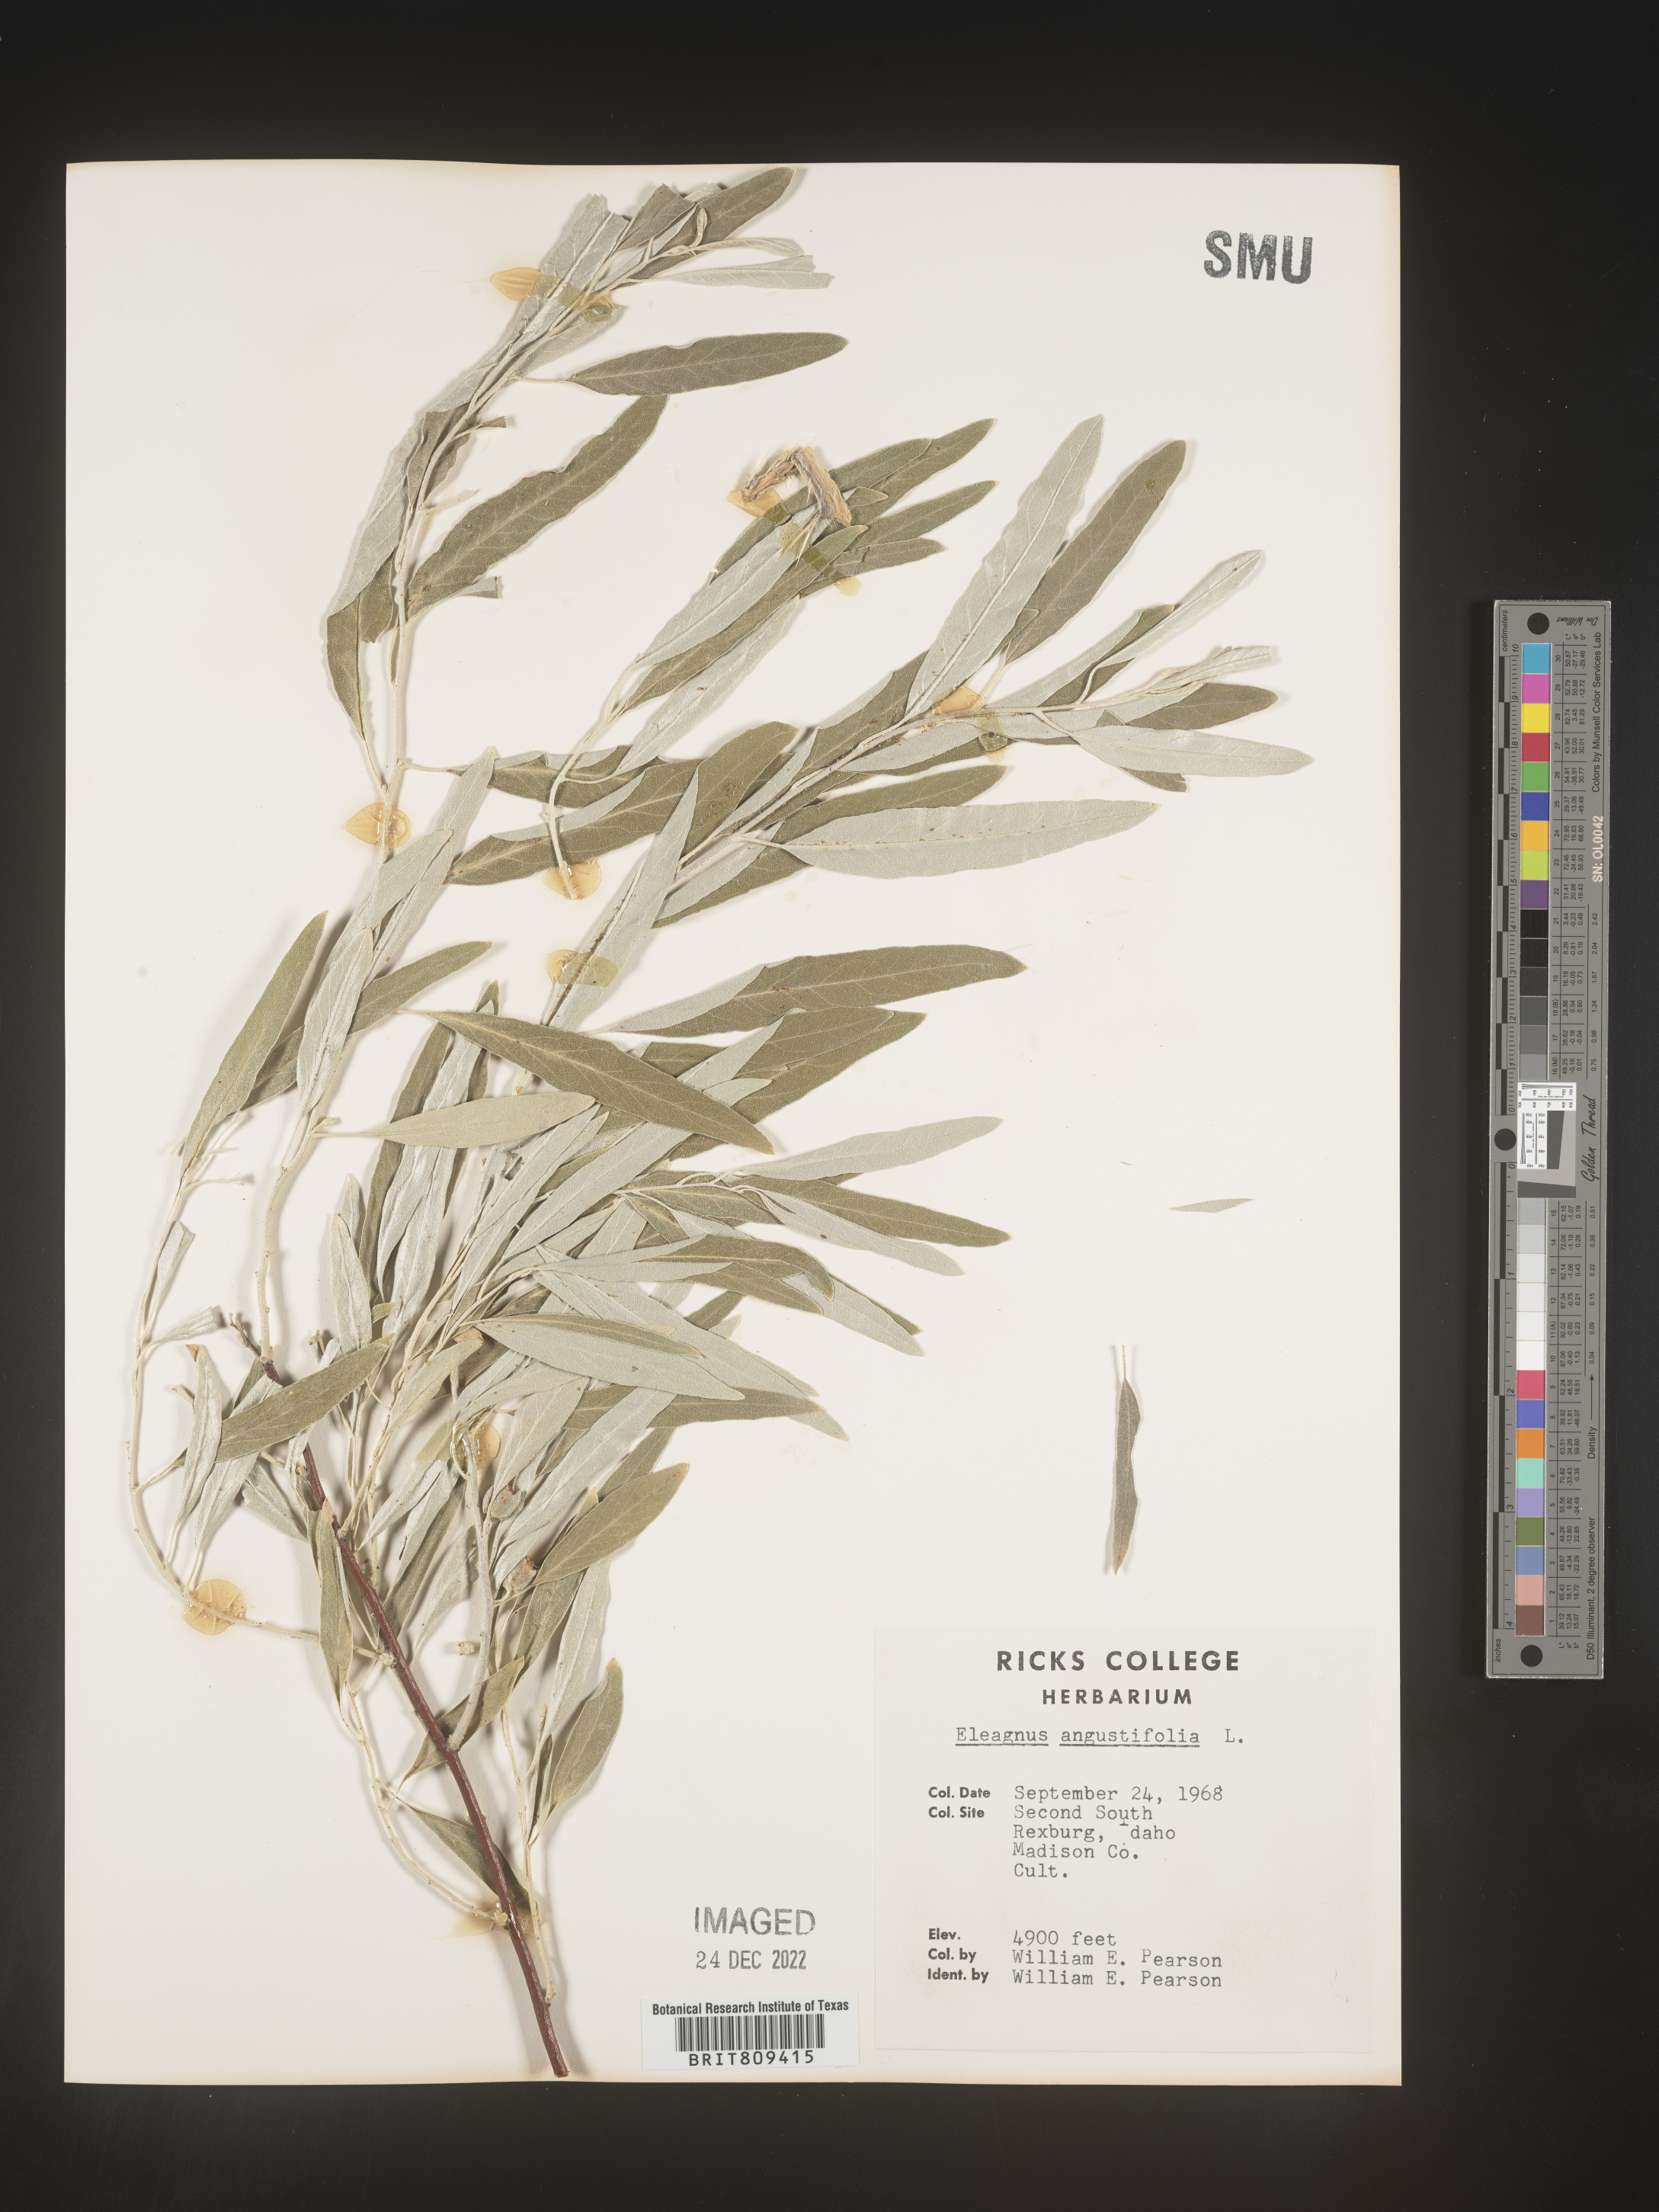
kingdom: Plantae
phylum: Tracheophyta
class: Magnoliopsida
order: Rosales
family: Elaeagnaceae
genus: Elaeagnus
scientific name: Elaeagnus
